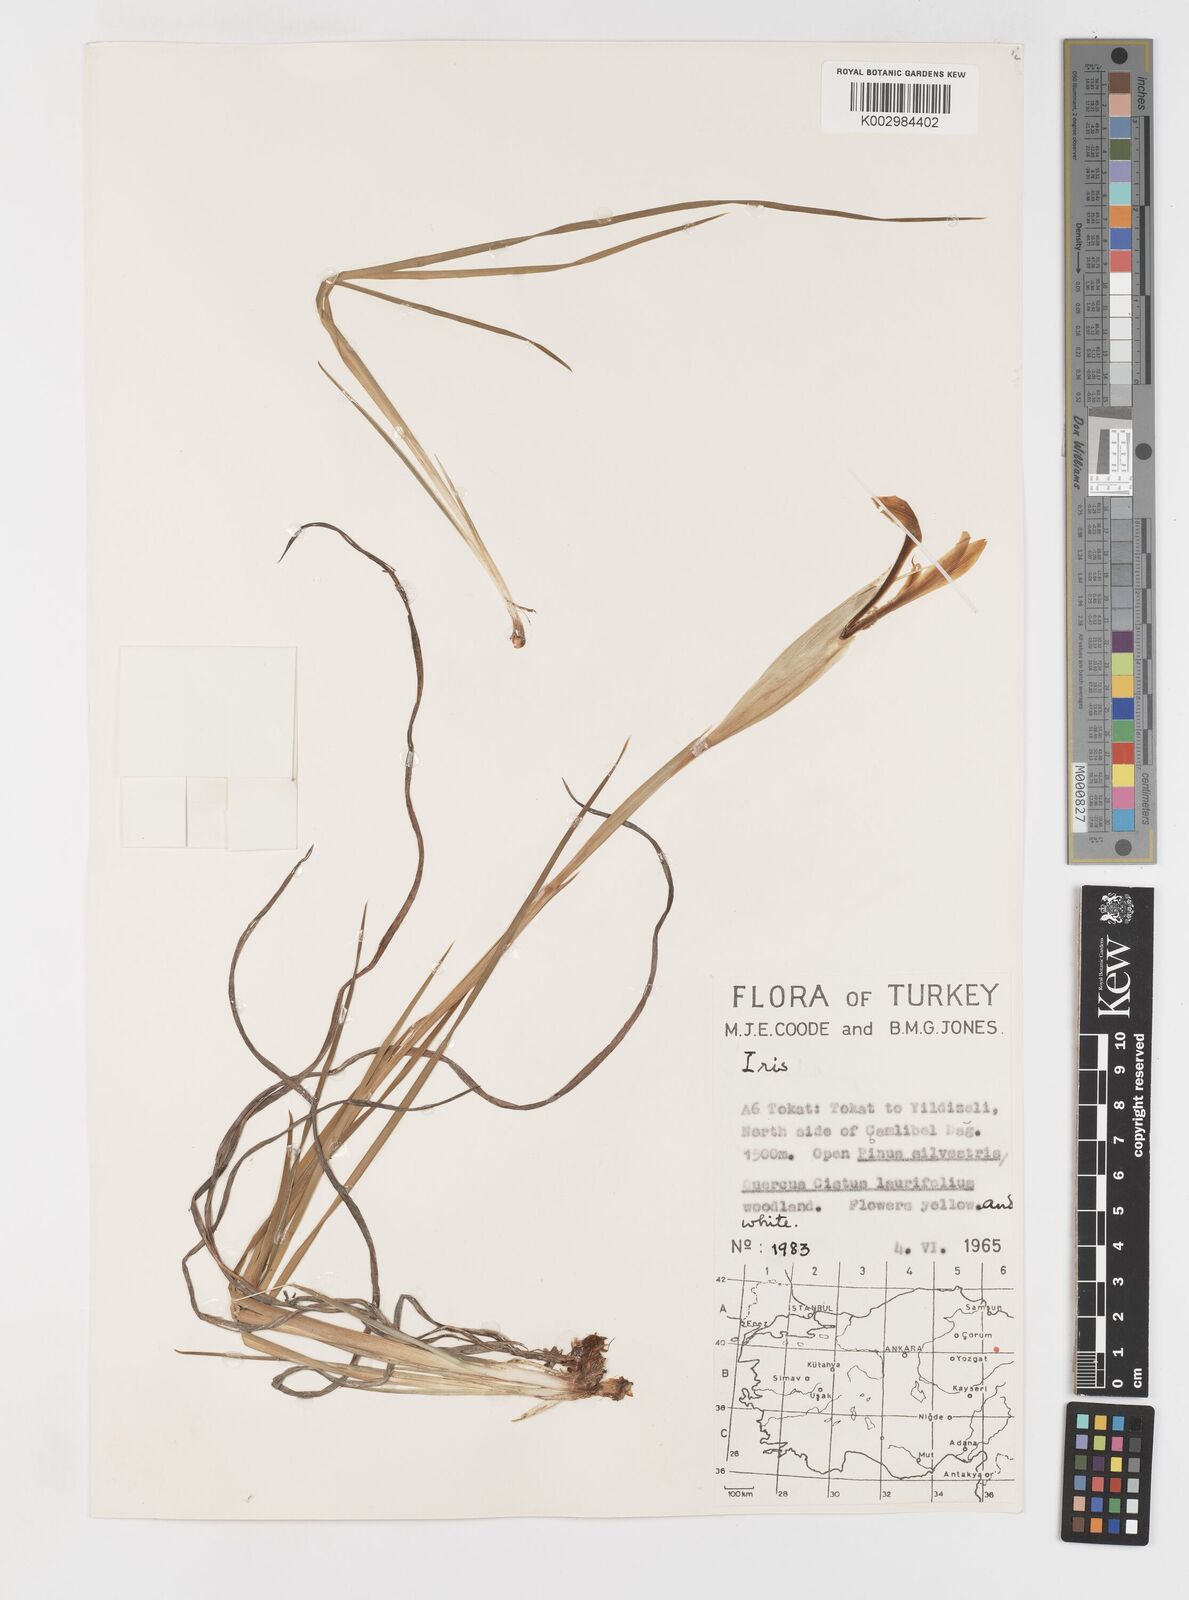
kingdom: Plantae
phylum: Tracheophyta
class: Liliopsida
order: Asparagales
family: Iridaceae
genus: Iris
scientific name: Iris haussknechtii
